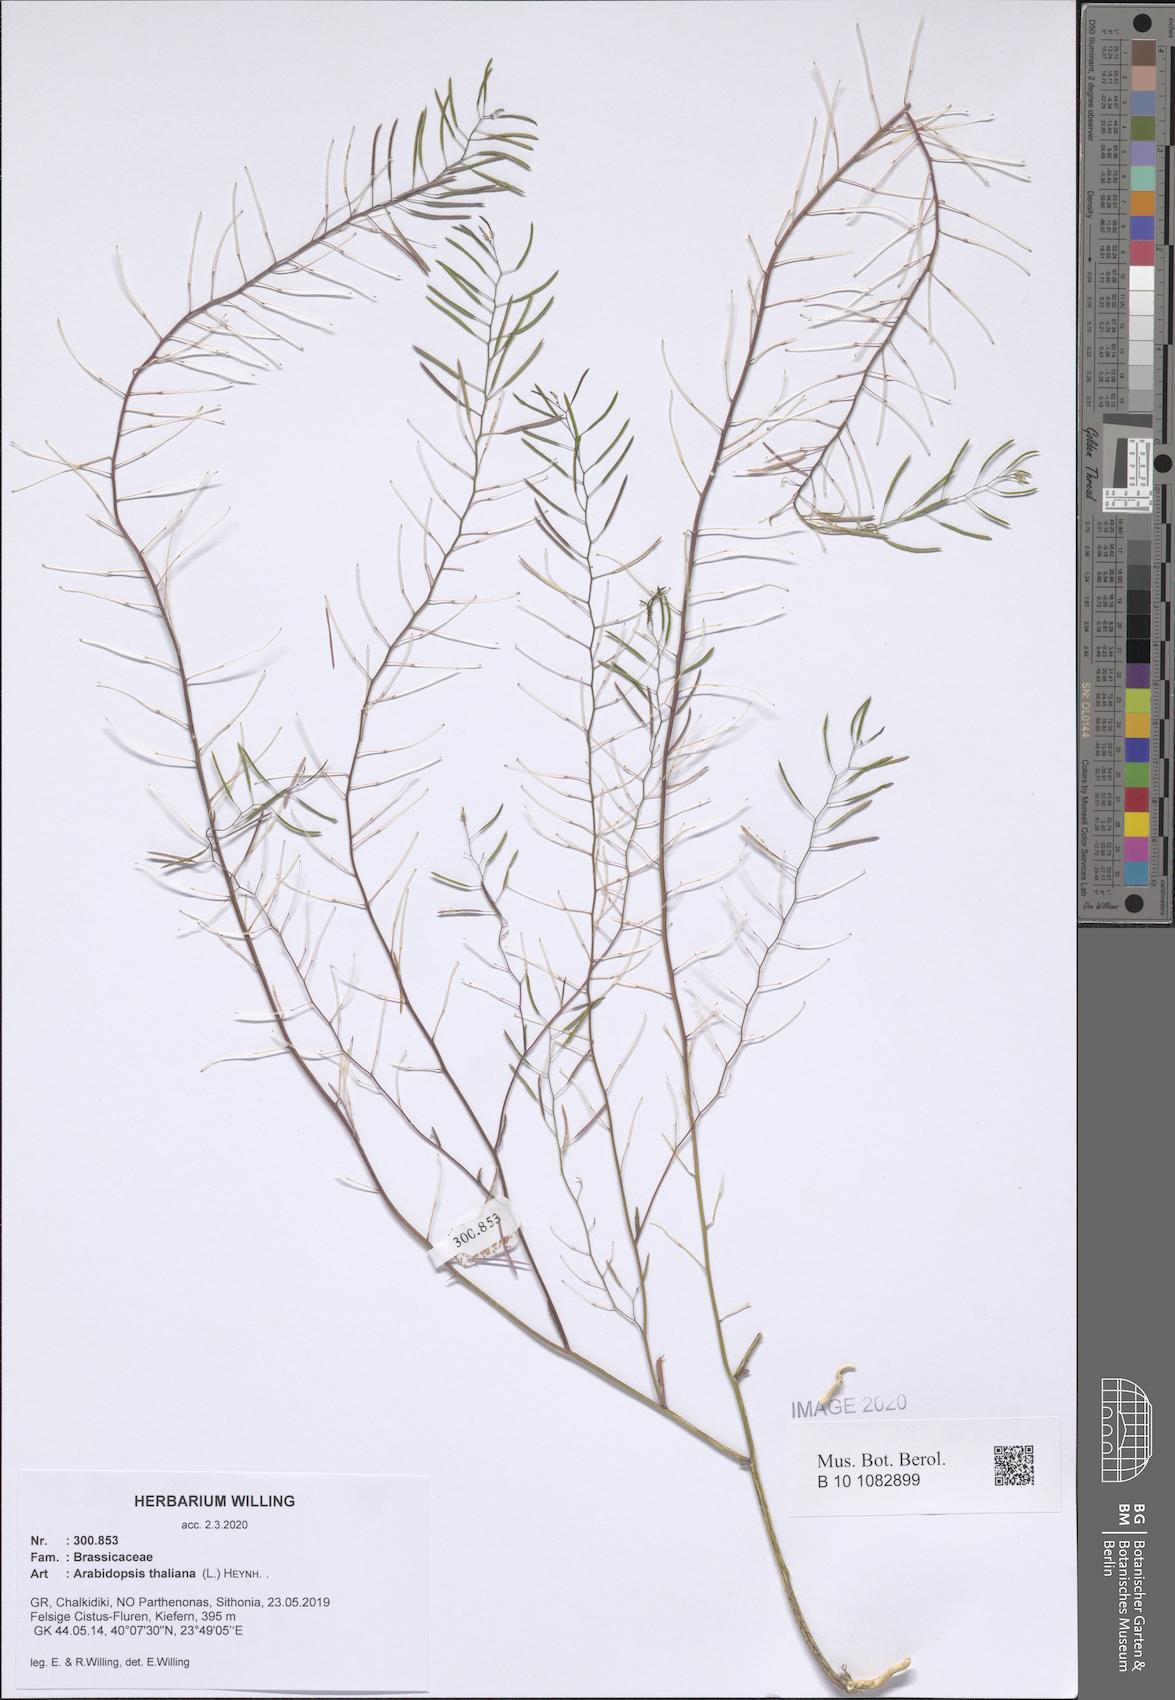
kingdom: Plantae
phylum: Tracheophyta
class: Magnoliopsida
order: Brassicales
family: Brassicaceae
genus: Arabidopsis
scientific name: Arabidopsis thaliana
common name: Thale cress
